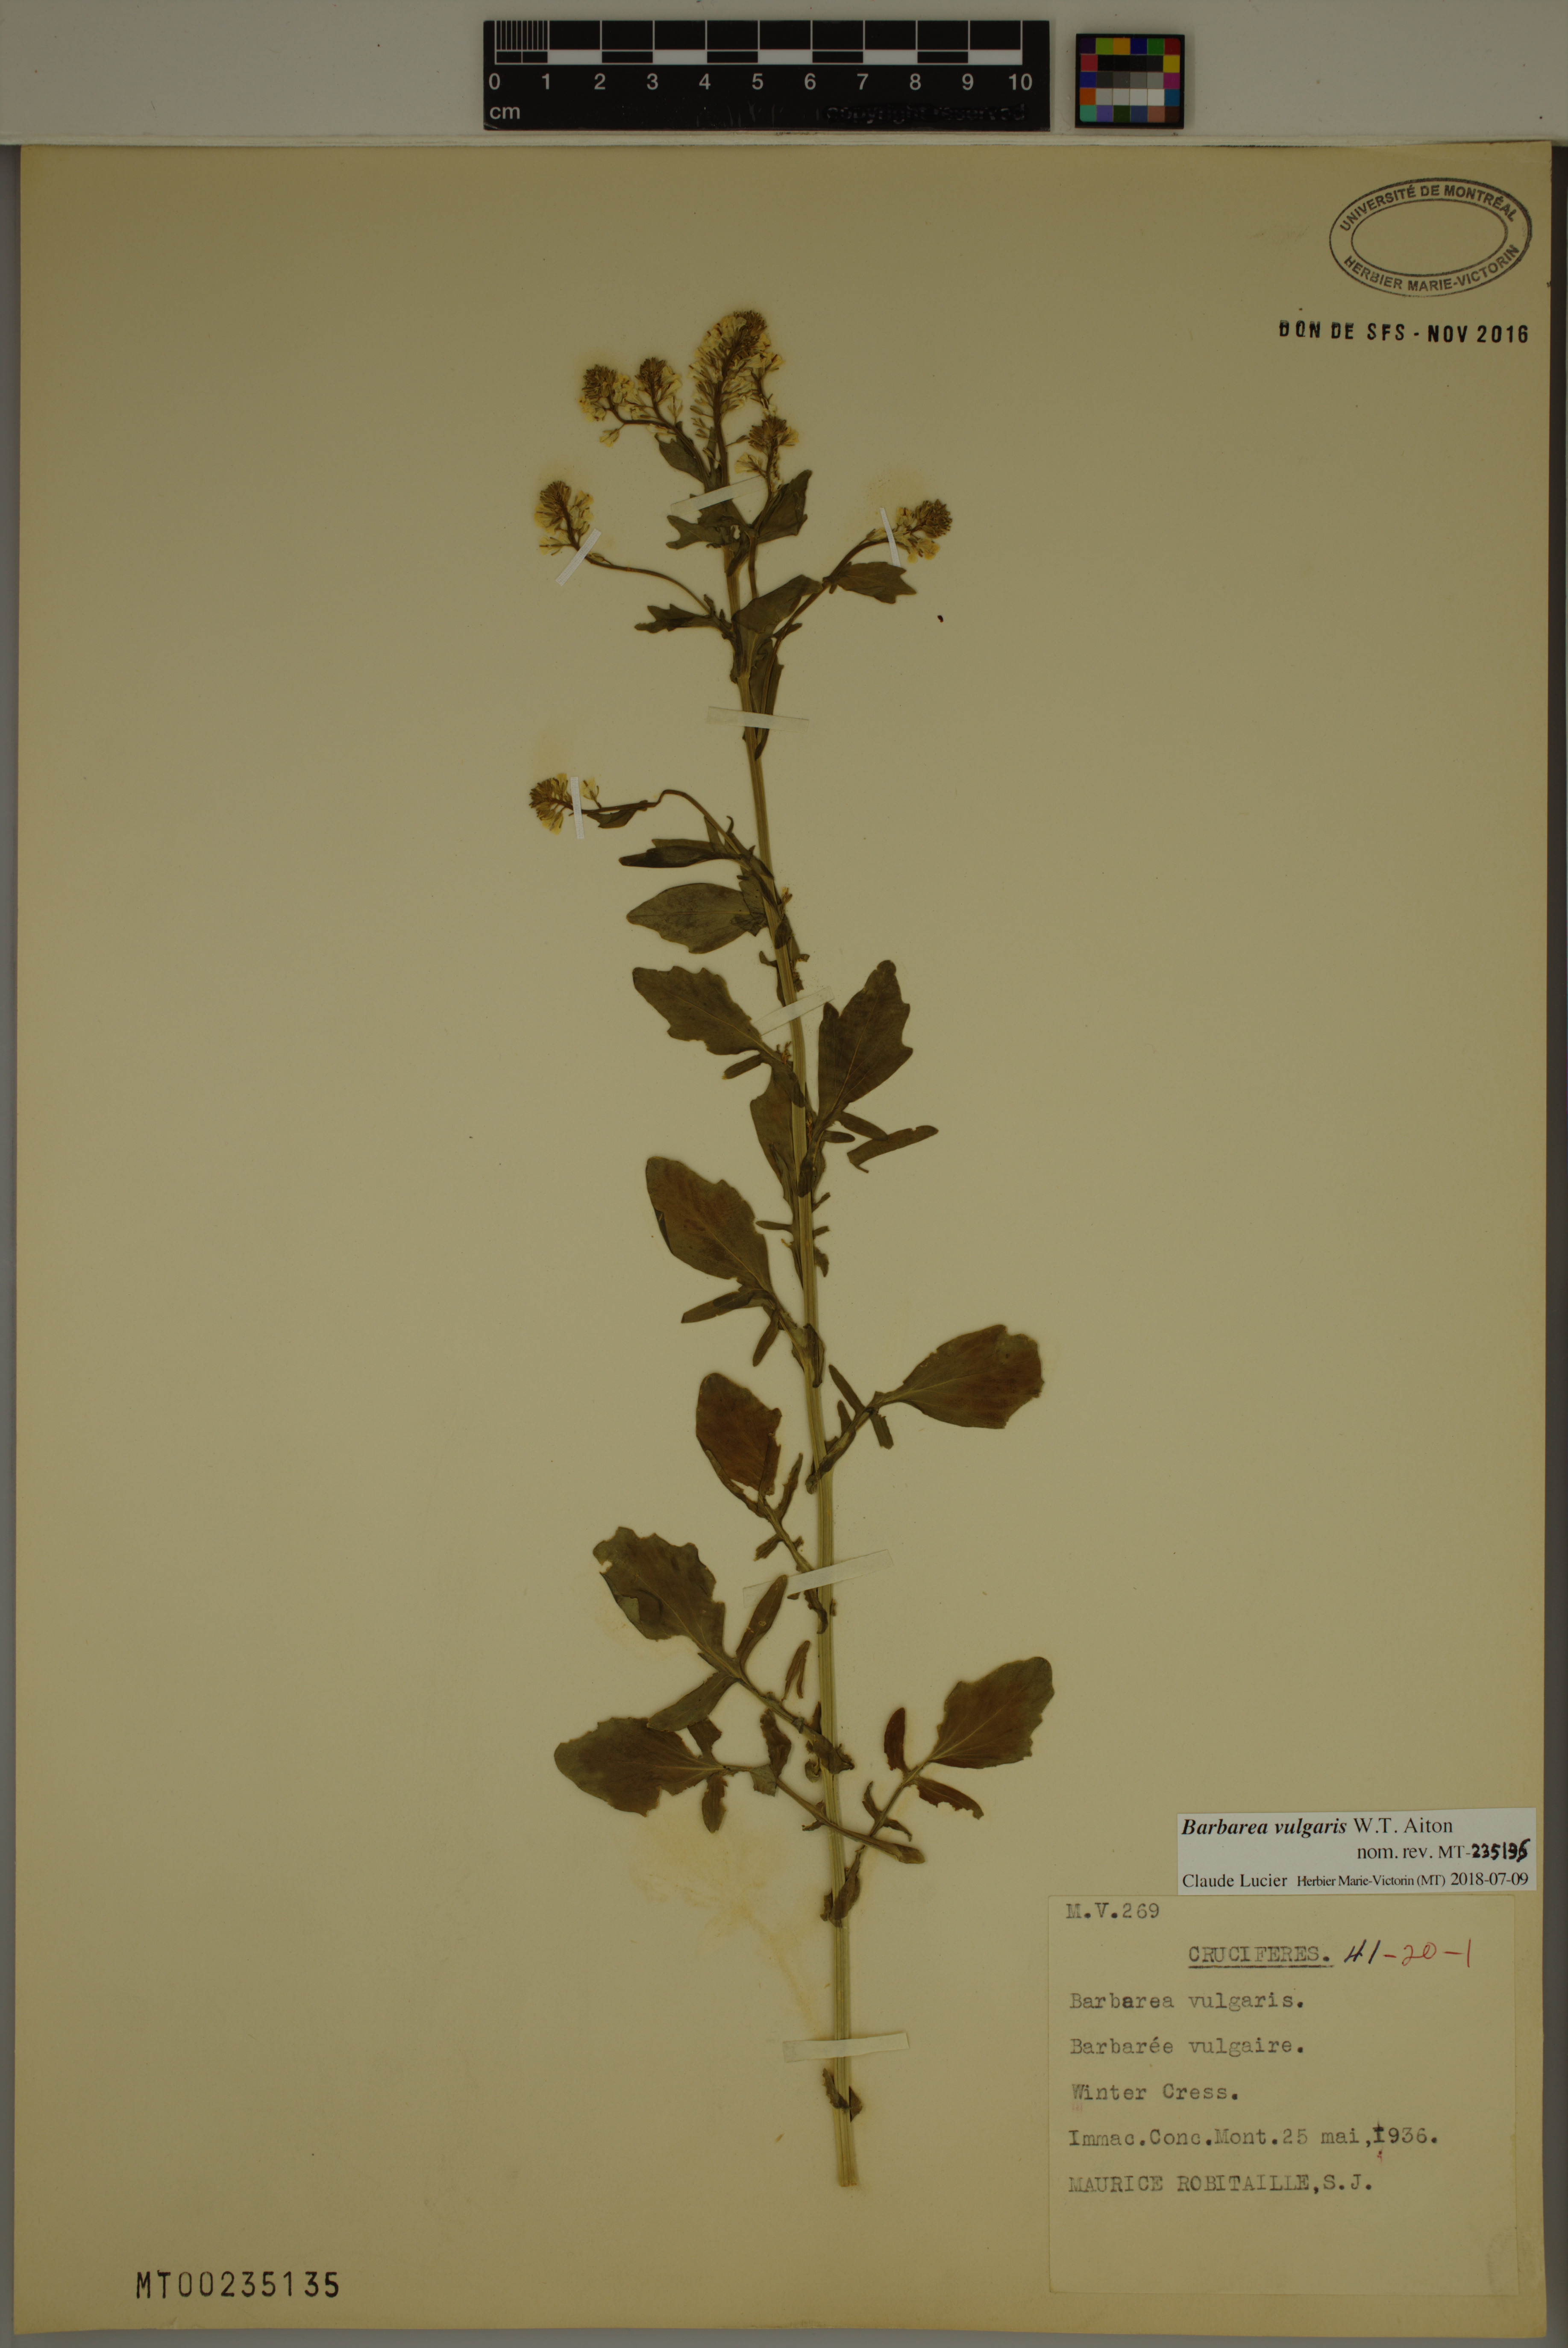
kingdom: Plantae
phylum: Tracheophyta
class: Magnoliopsida
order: Brassicales
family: Brassicaceae
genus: Barbarea
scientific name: Barbarea vulgaris
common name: Cressy-greens
